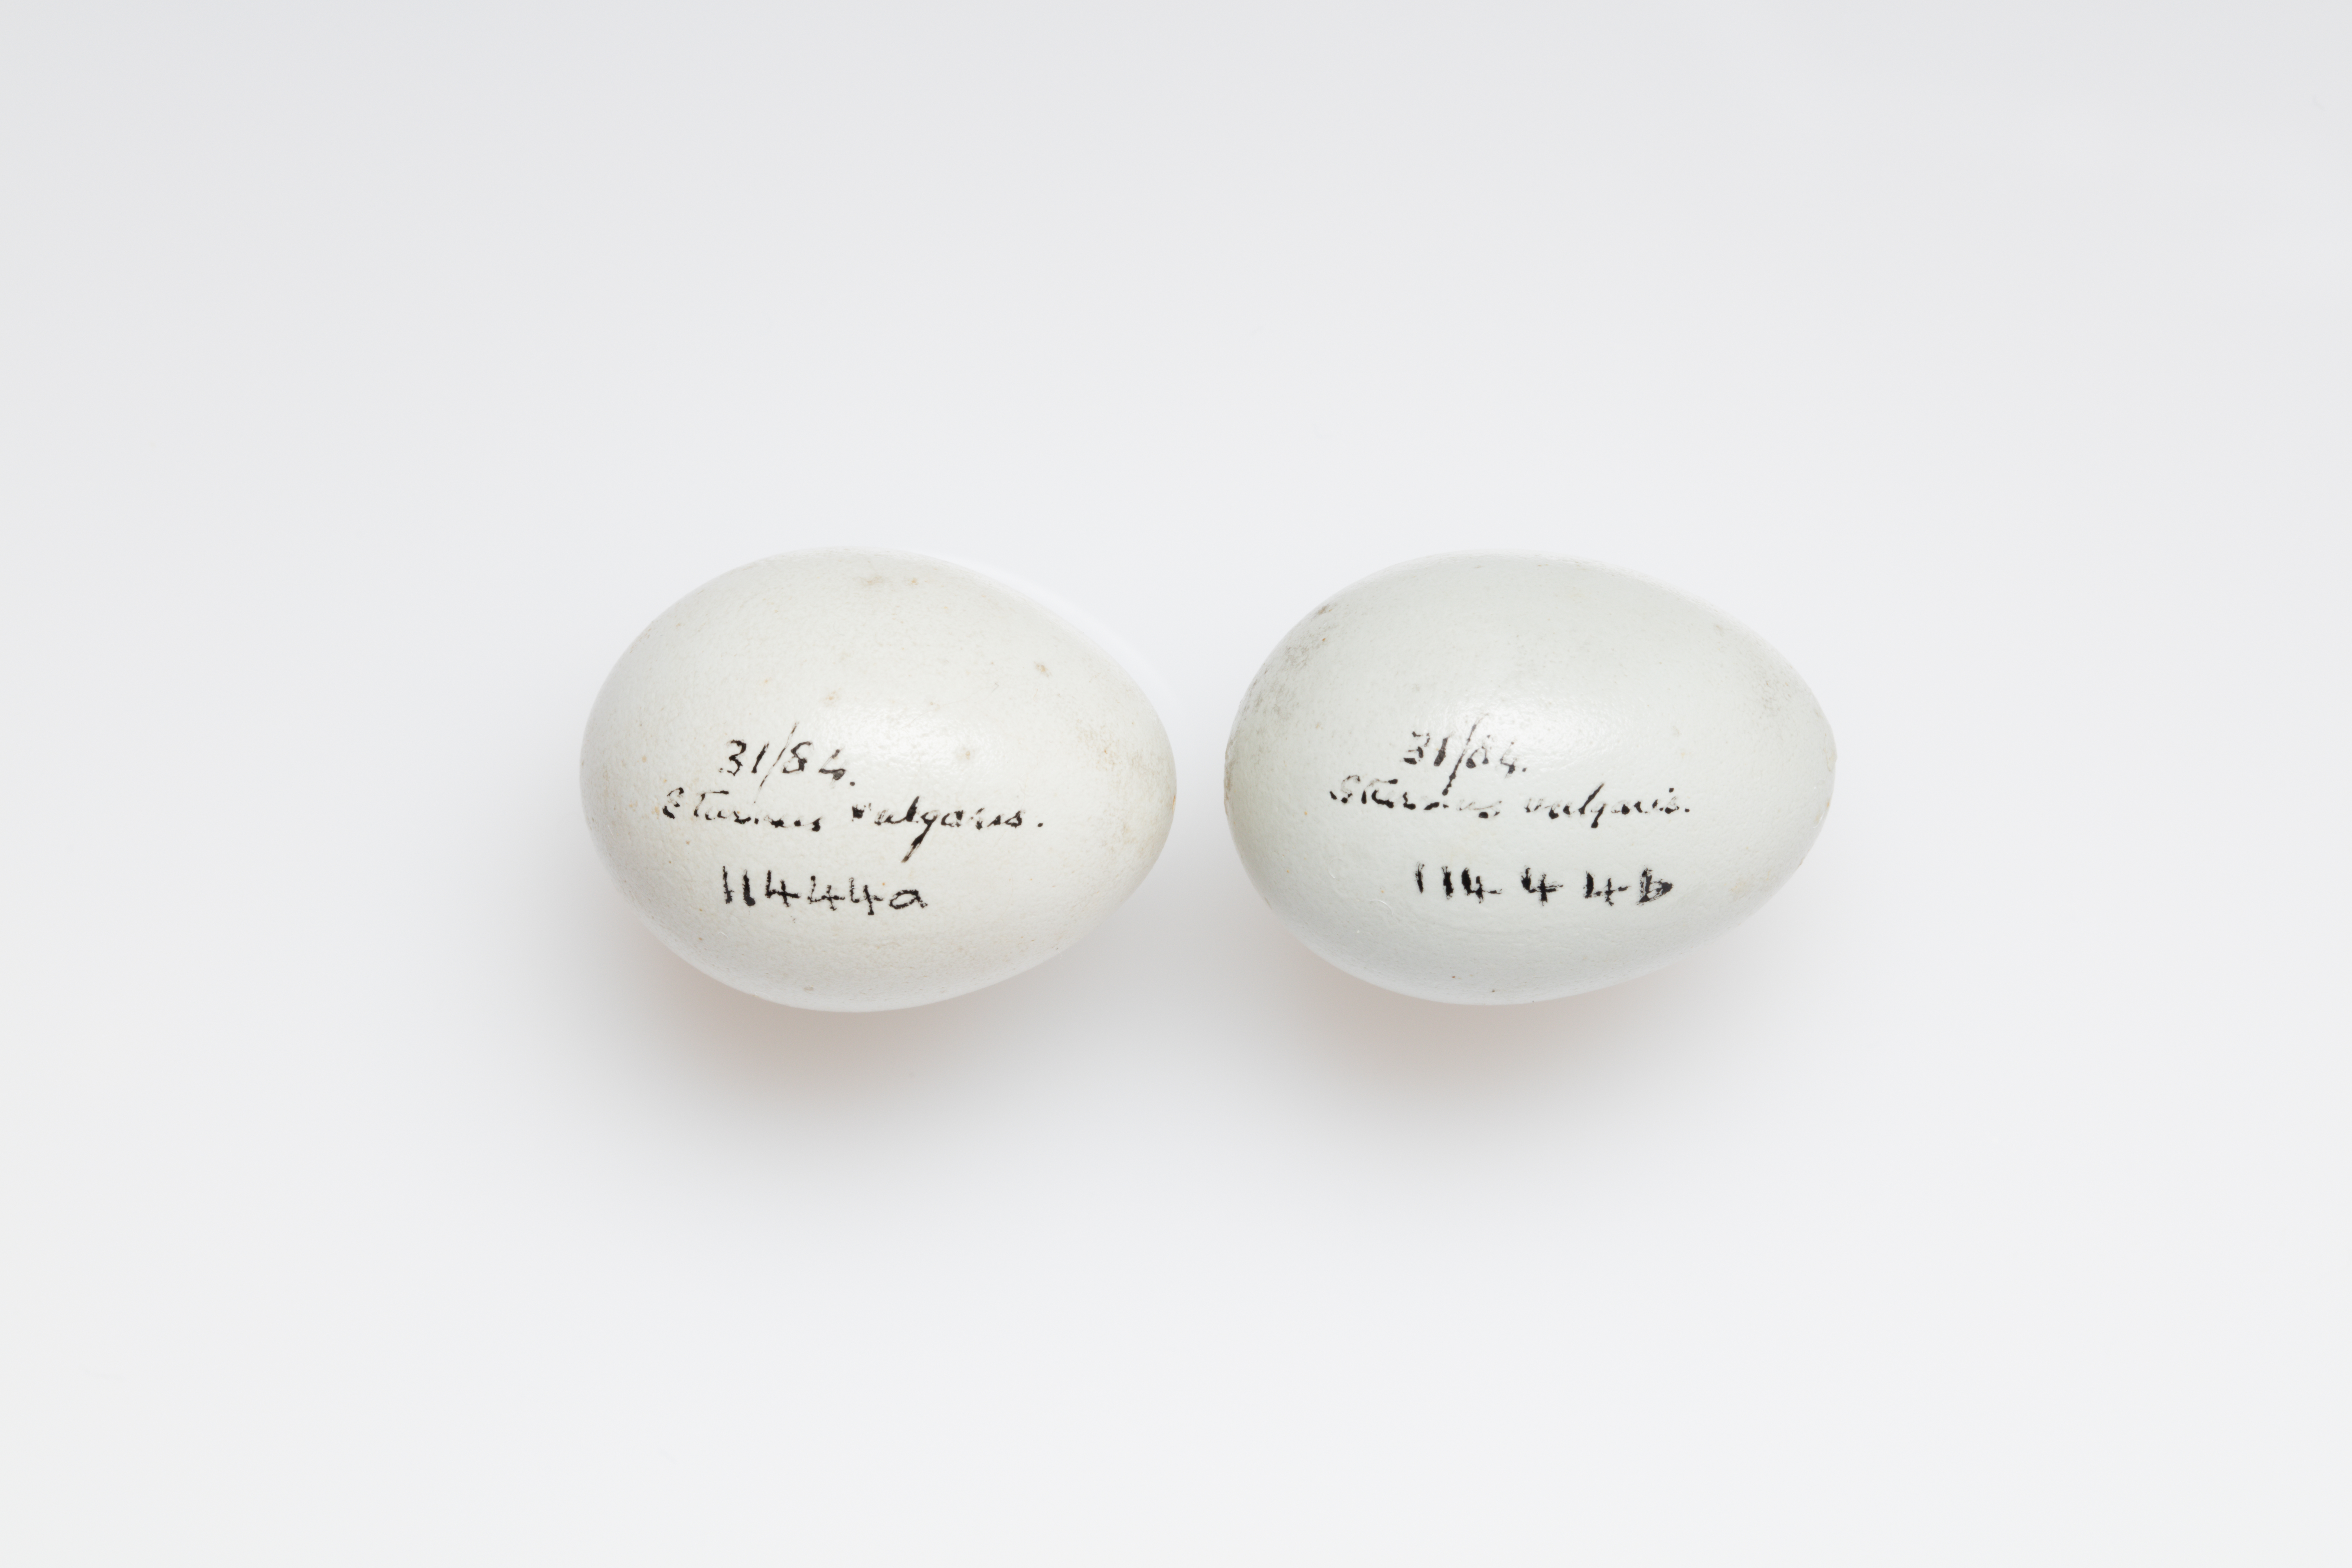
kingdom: Animalia
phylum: Chordata
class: Aves
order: Passeriformes
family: Sturnidae
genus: Sturnus
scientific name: Sturnus vulgaris
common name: Common starling
